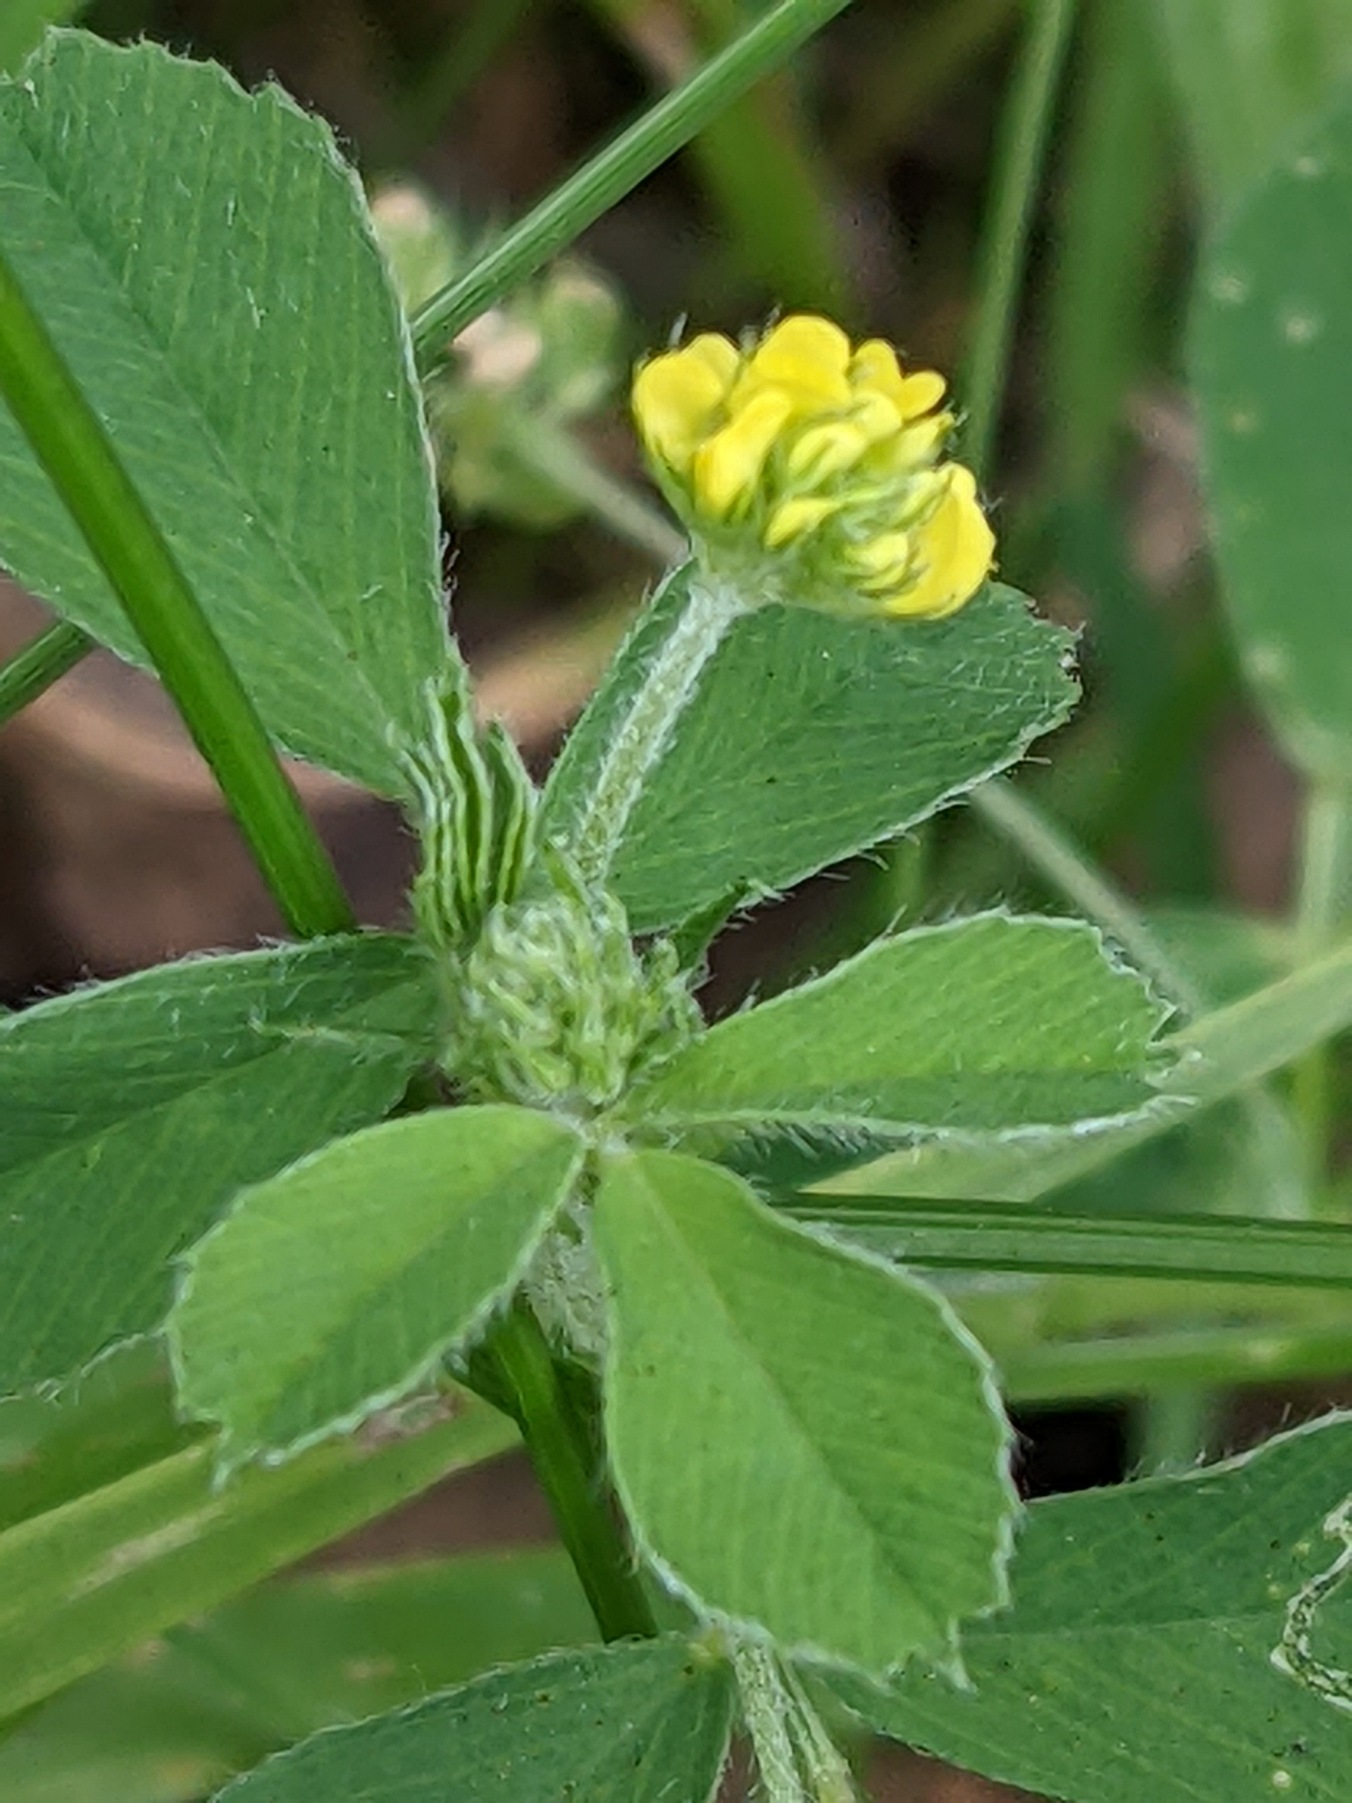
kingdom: Plantae
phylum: Tracheophyta
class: Magnoliopsida
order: Fabales
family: Fabaceae
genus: Medicago
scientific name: Medicago lupulina
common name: Humle-sneglebælg
